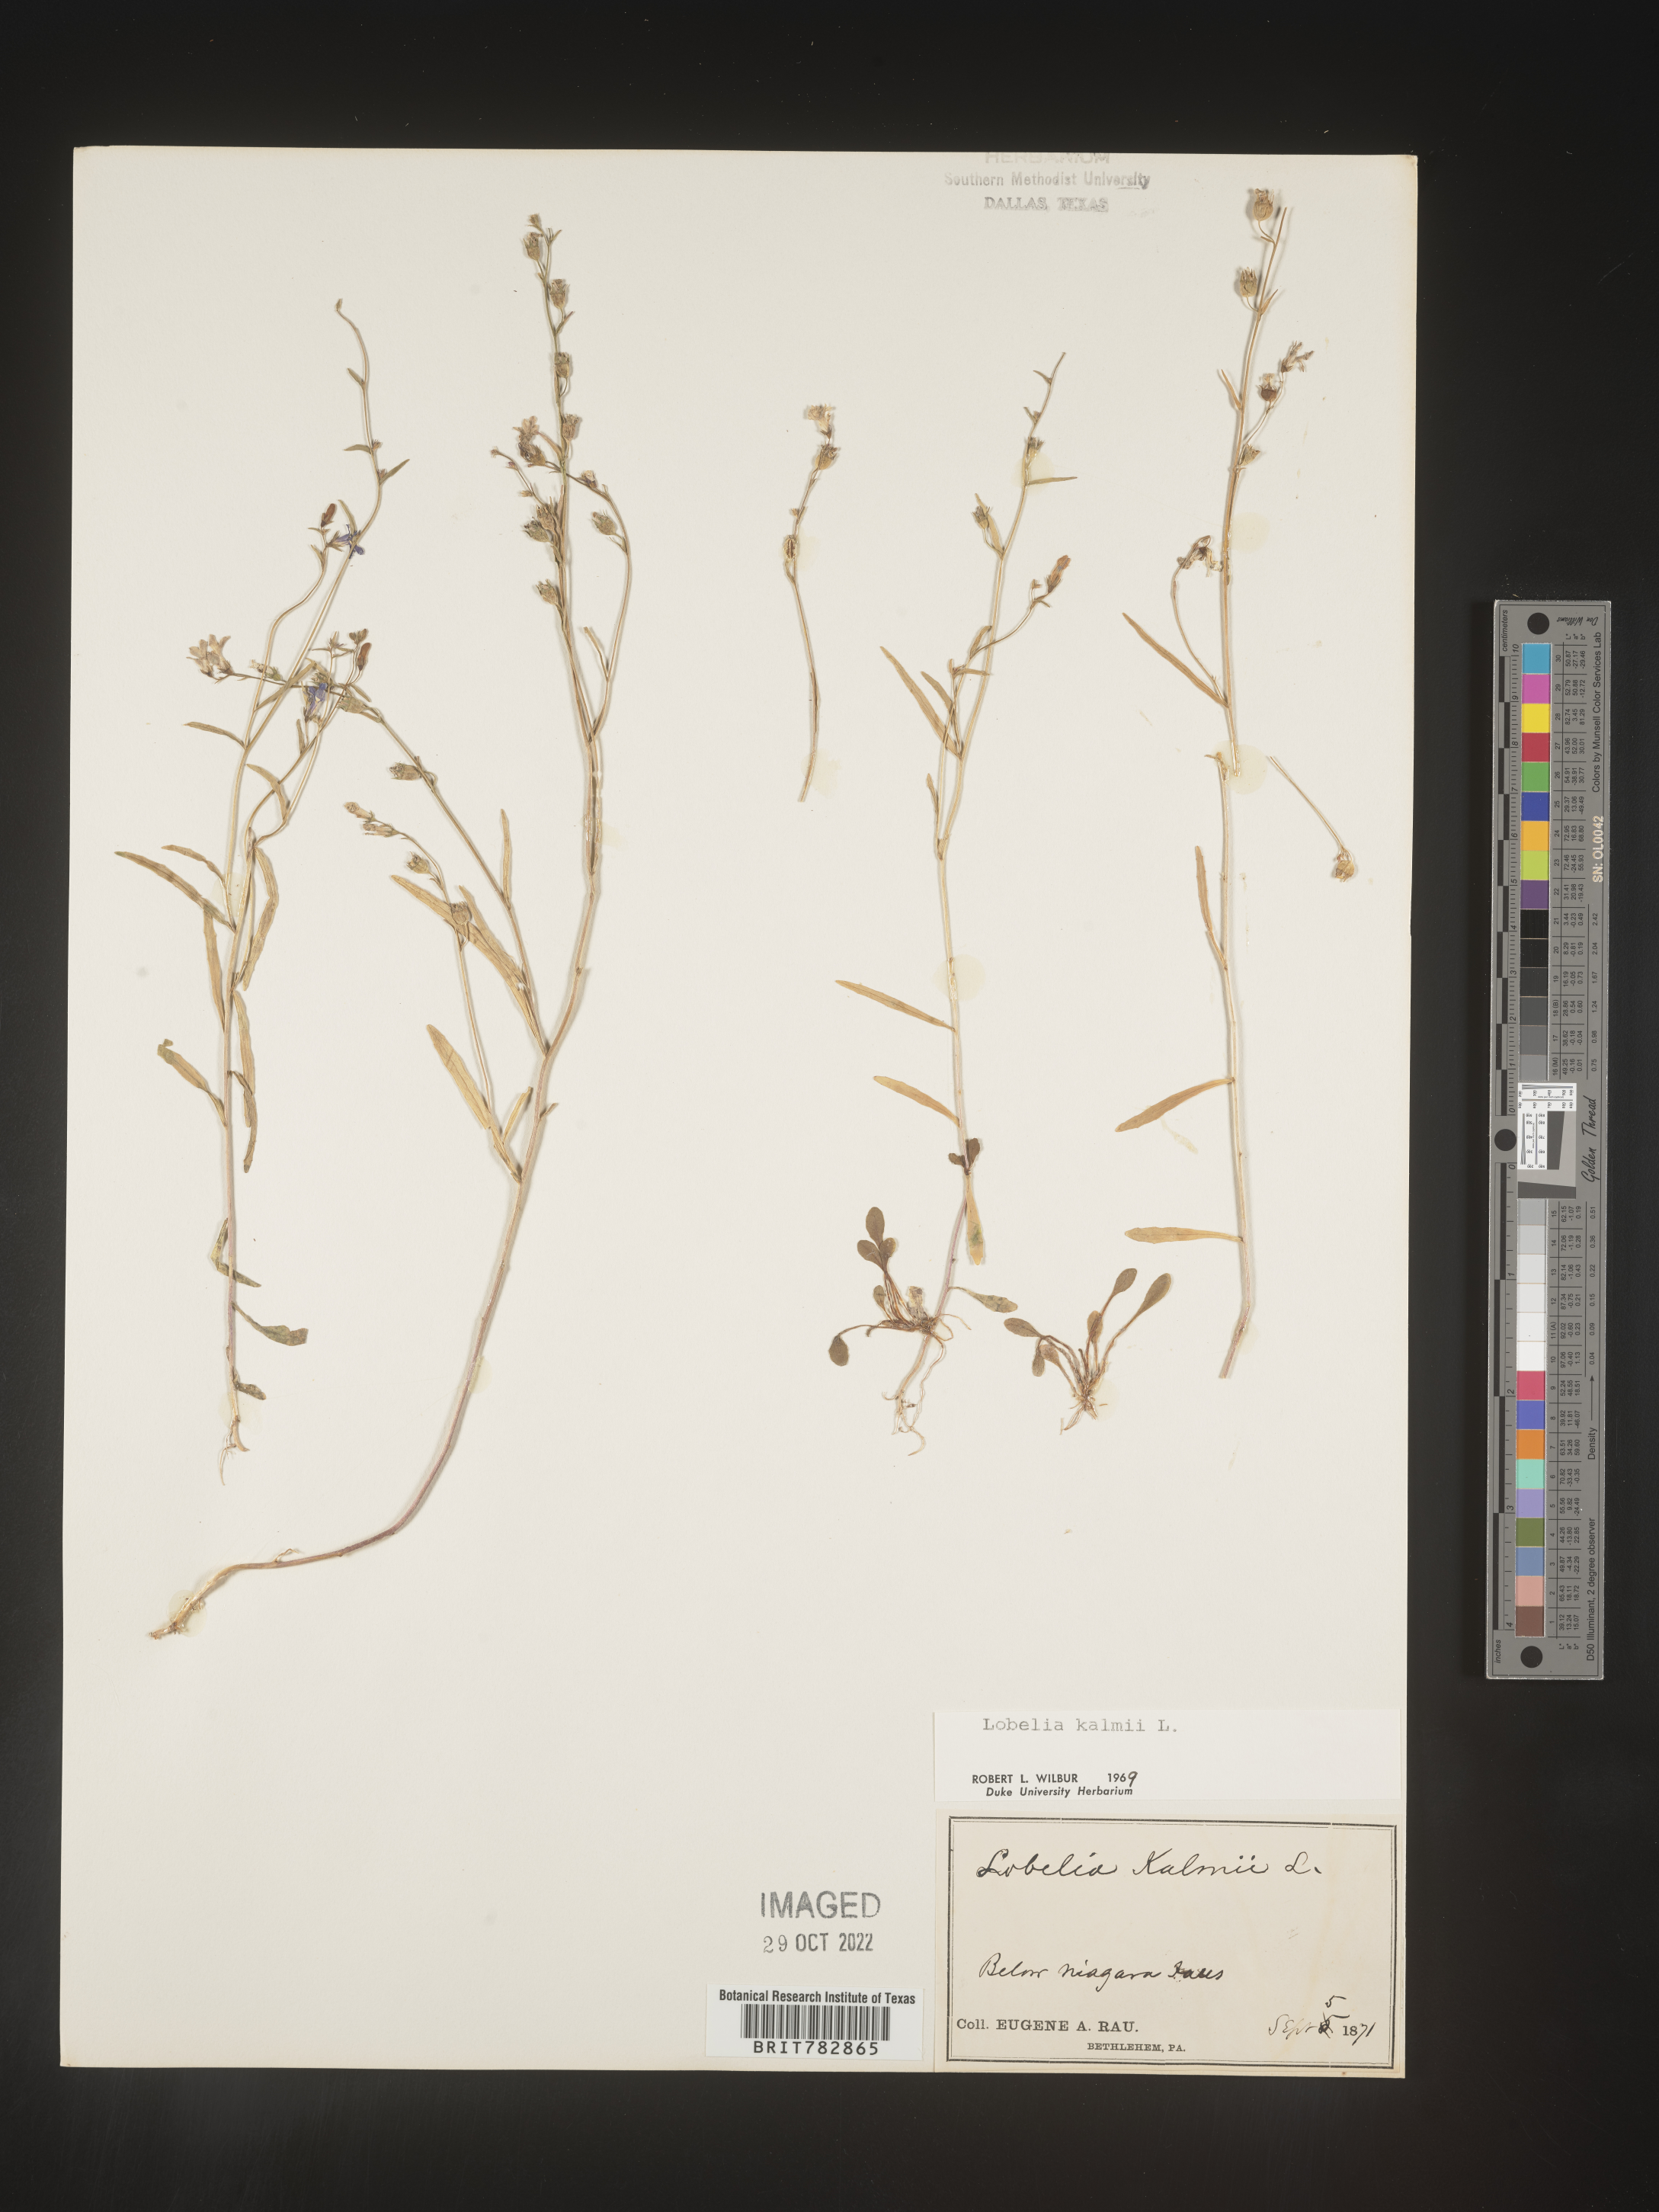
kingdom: Plantae
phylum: Tracheophyta
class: Magnoliopsida
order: Asterales
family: Campanulaceae
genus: Lobelia
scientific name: Lobelia
